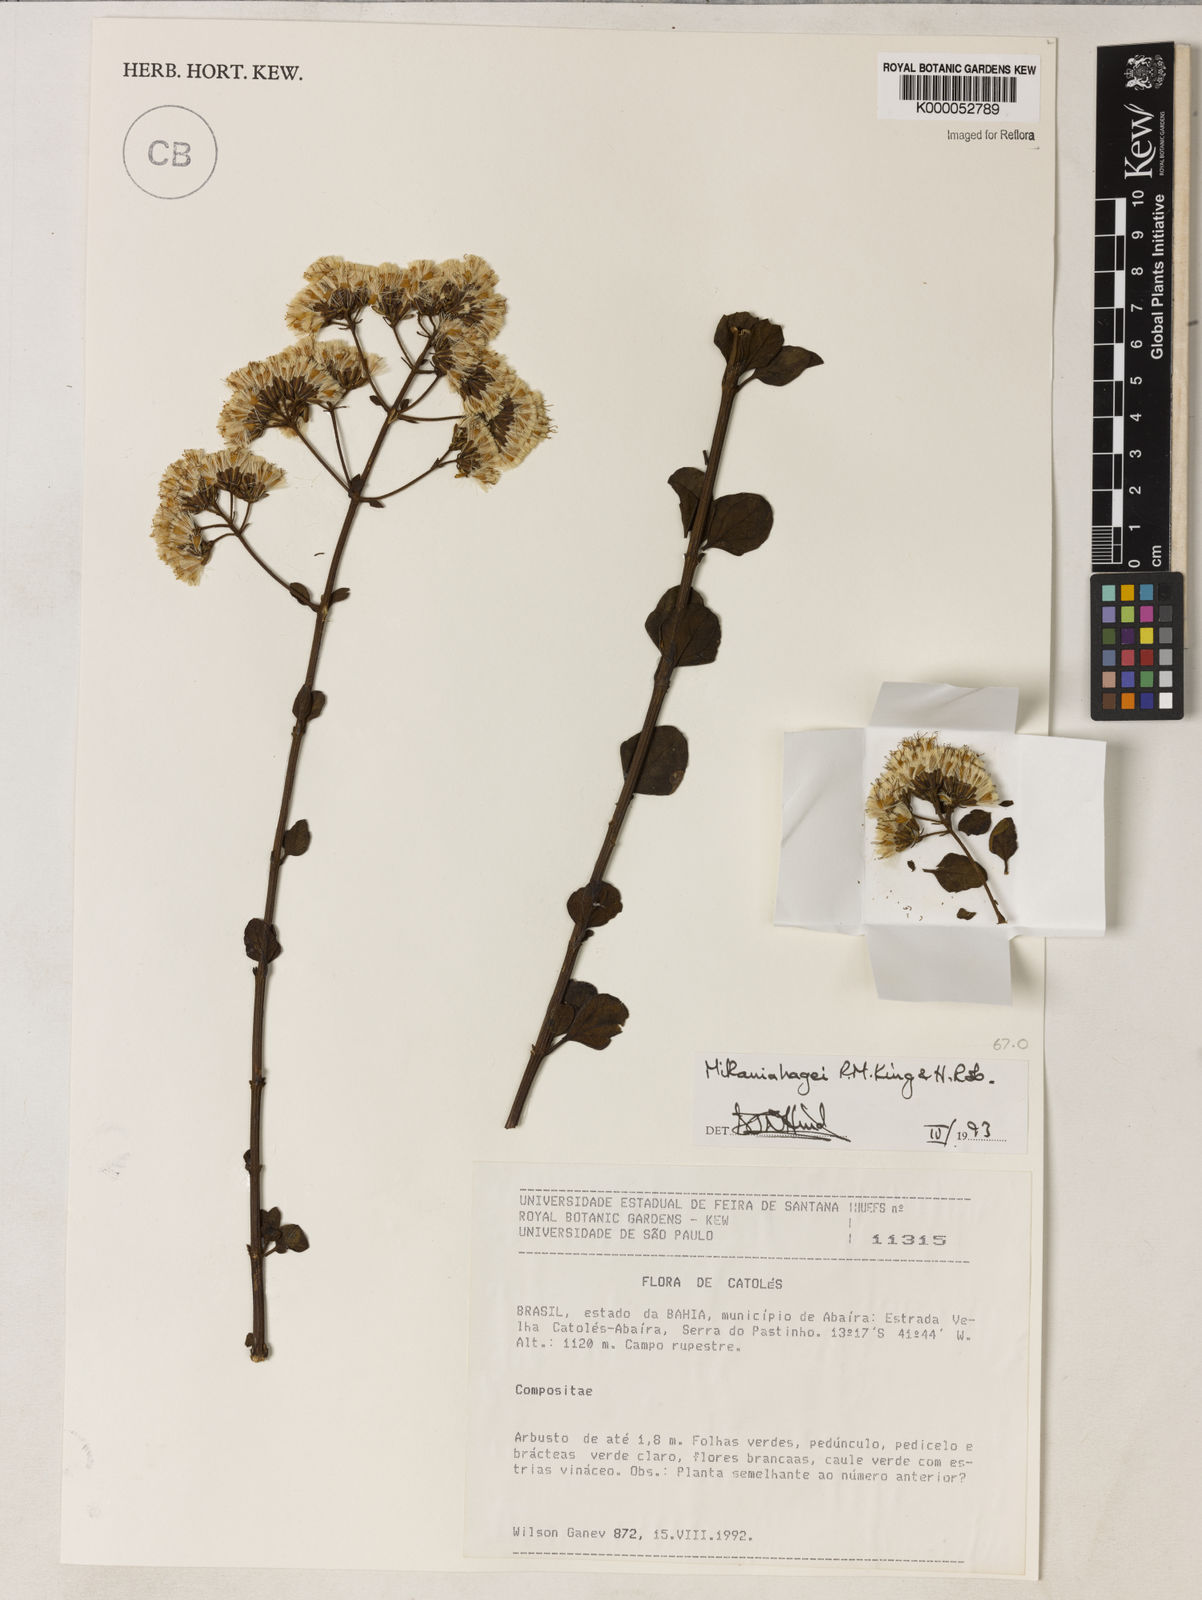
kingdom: Plantae
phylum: Tracheophyta
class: Magnoliopsida
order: Asterales
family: Asteraceae
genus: Mikania
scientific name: Mikania hagei
